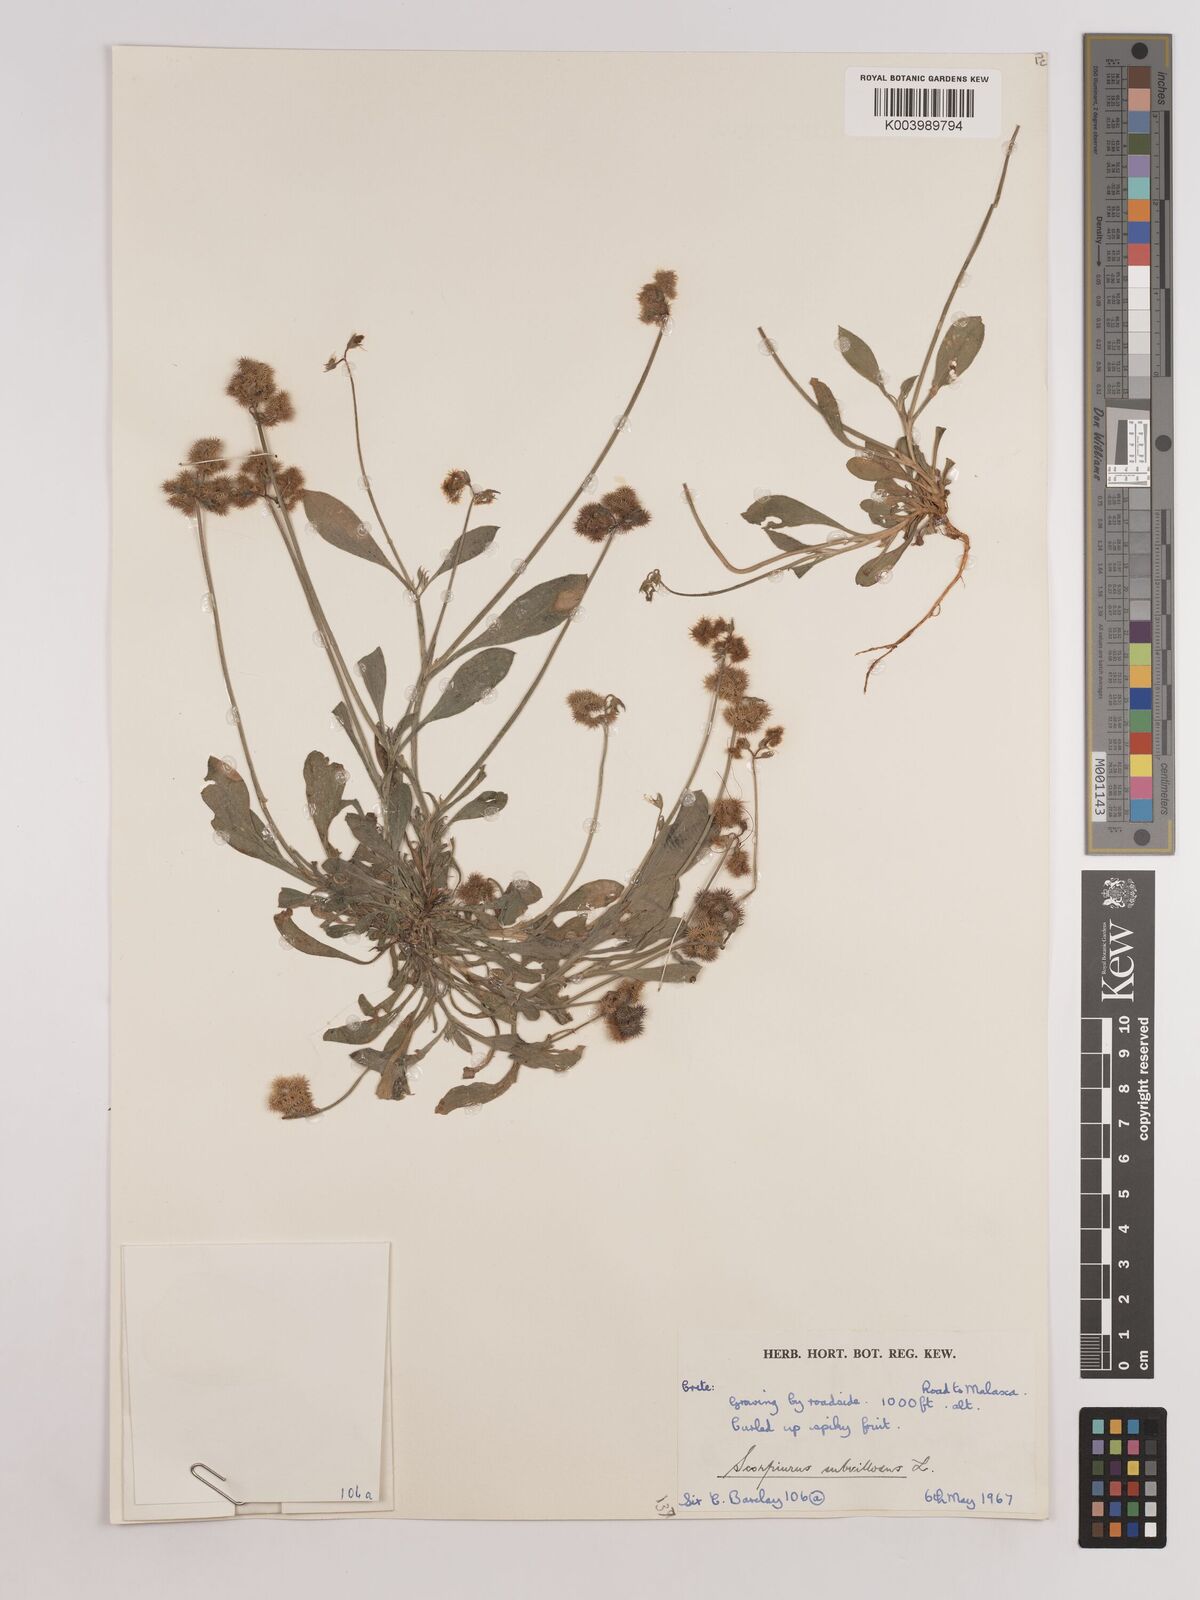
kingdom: Plantae
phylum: Tracheophyta
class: Magnoliopsida
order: Fabales
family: Fabaceae
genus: Scorpiurus
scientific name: Scorpiurus muricatus
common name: Caterpillar-plant
